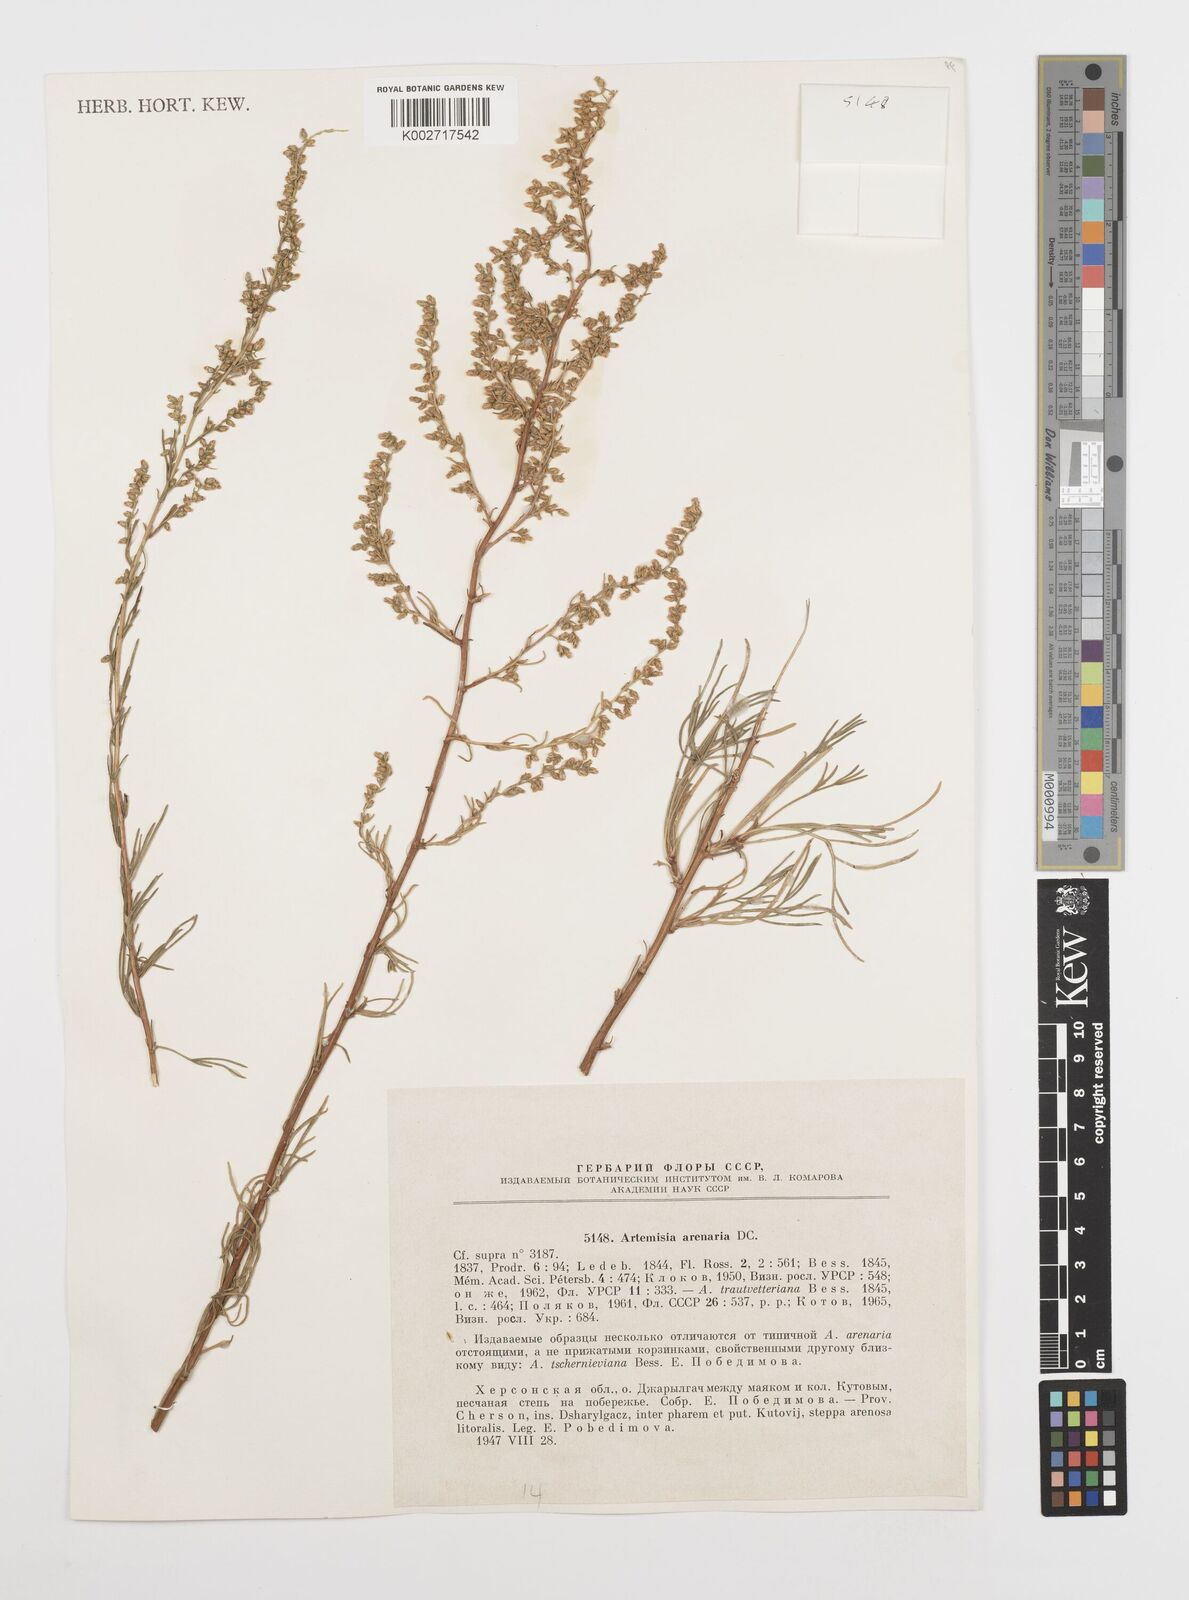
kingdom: Plantae
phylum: Tracheophyta
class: Magnoliopsida
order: Asterales
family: Asteraceae
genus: Artemisia
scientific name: Artemisia
